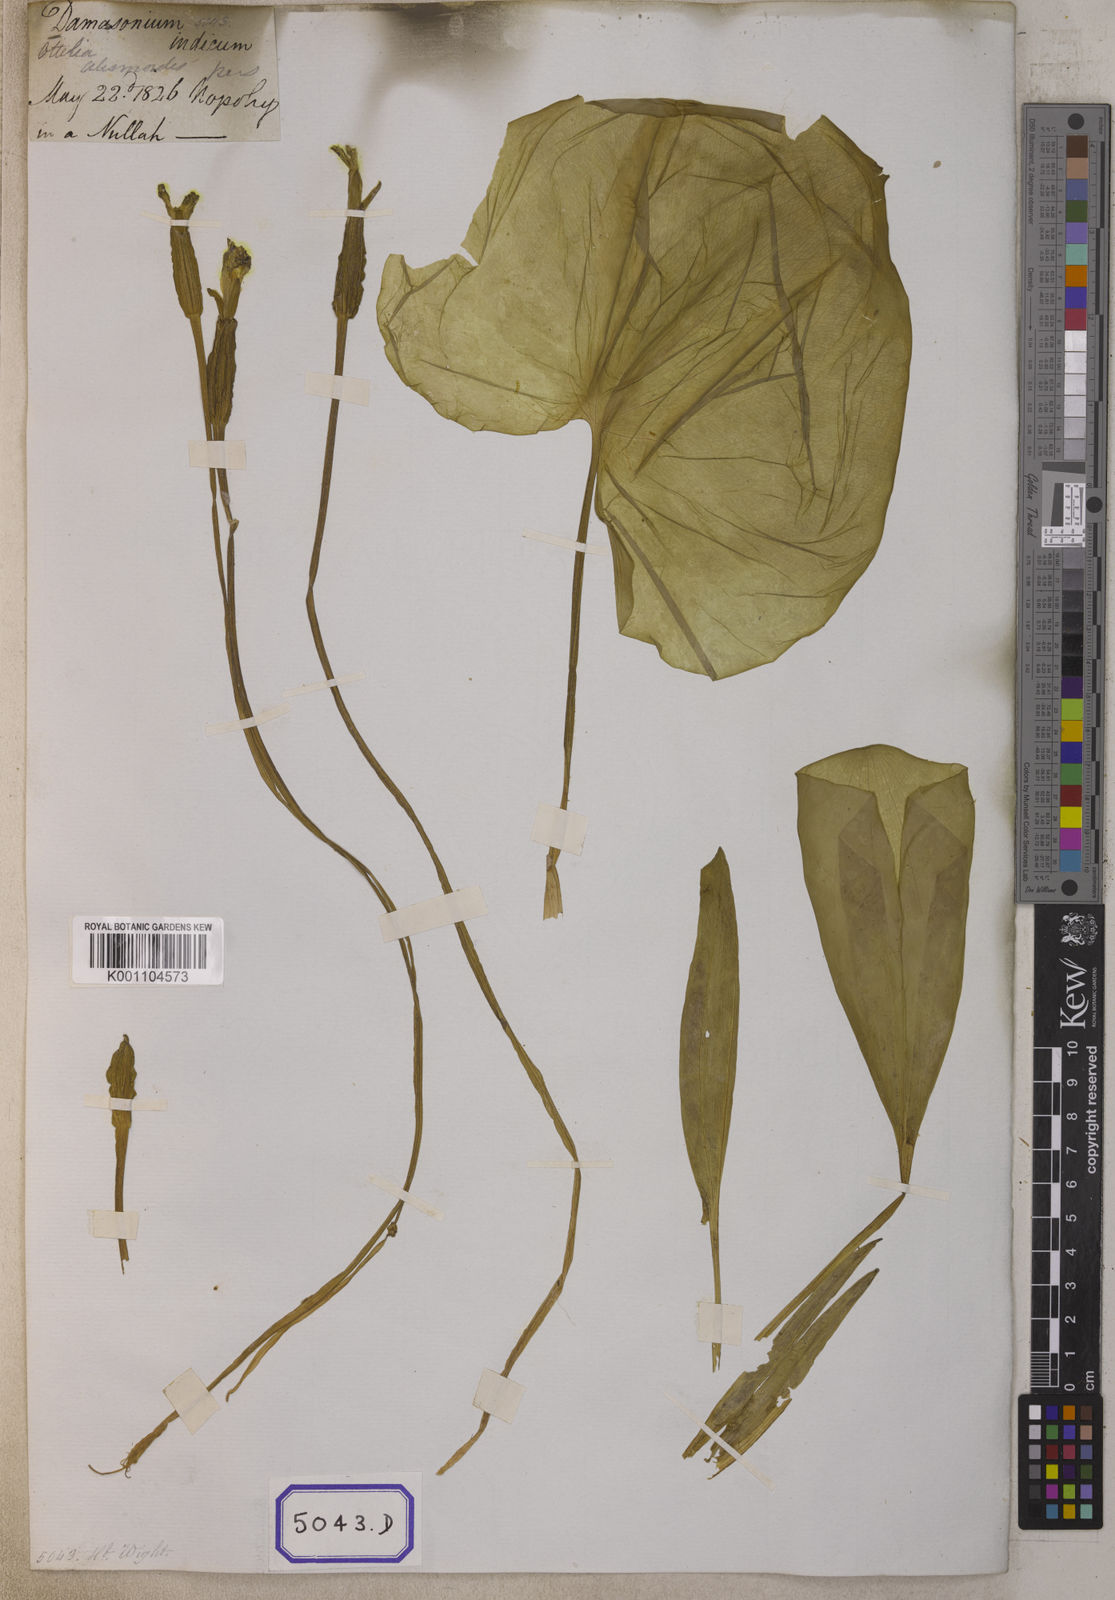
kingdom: Plantae
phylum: Tracheophyta
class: Liliopsida
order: Alismatales
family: Hydrocharitaceae
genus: Ottelia
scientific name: Ottelia alismoides
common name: Duck-lettuce
